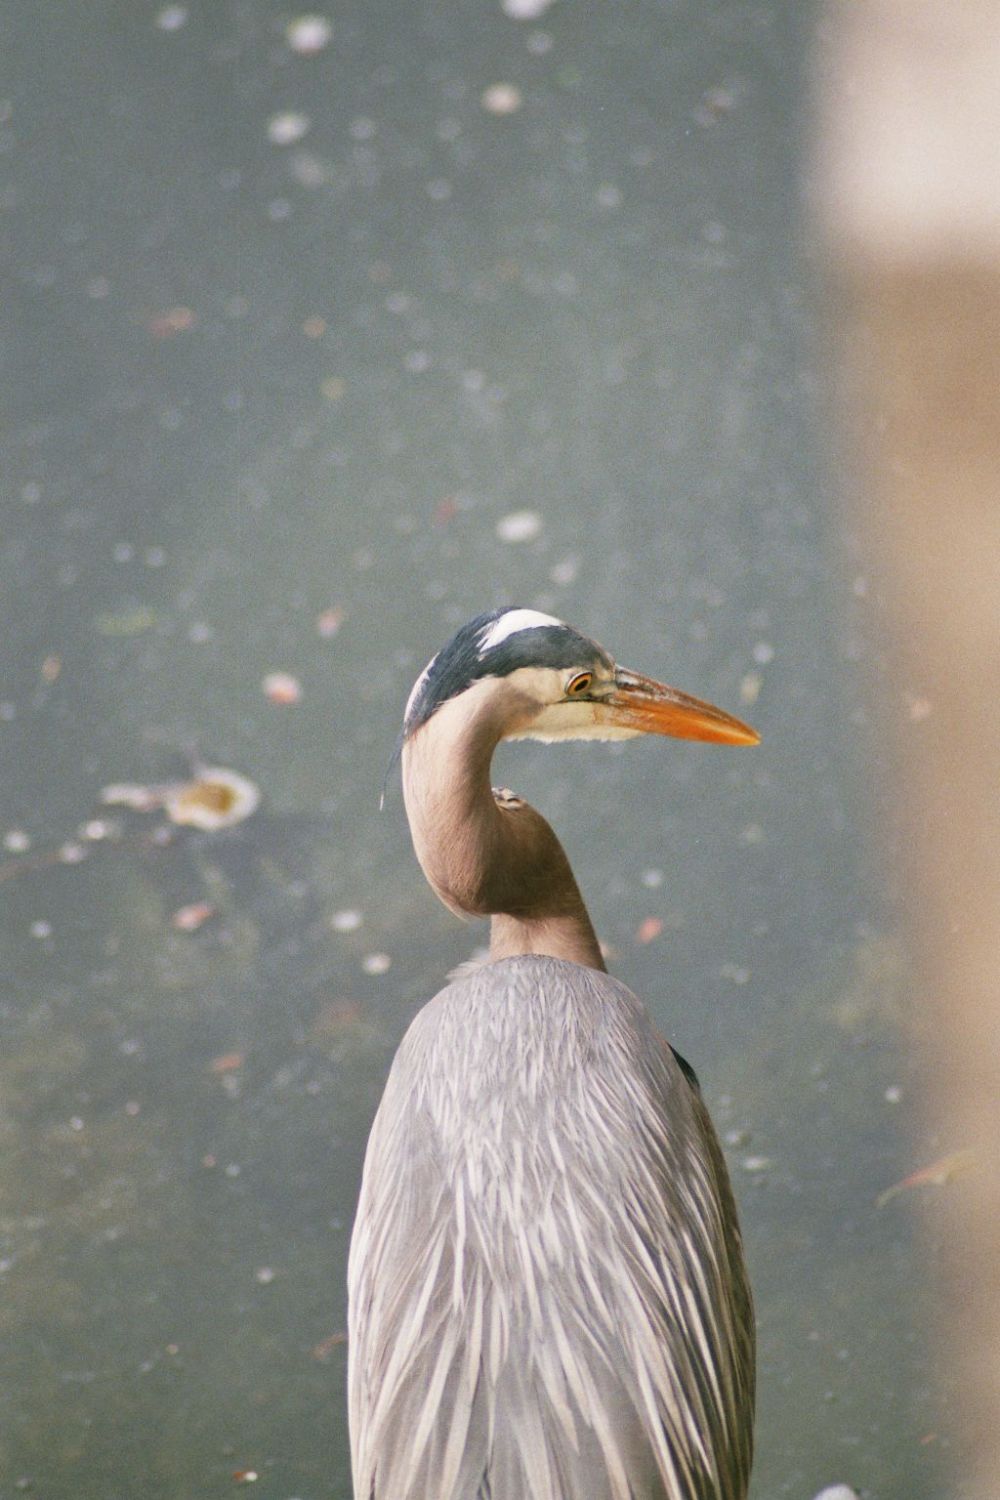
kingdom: Animalia
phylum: Chordata
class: Aves
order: Pelecaniformes
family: Ardeidae
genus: Ardea
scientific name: Ardea herodias
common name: Great blue heron
